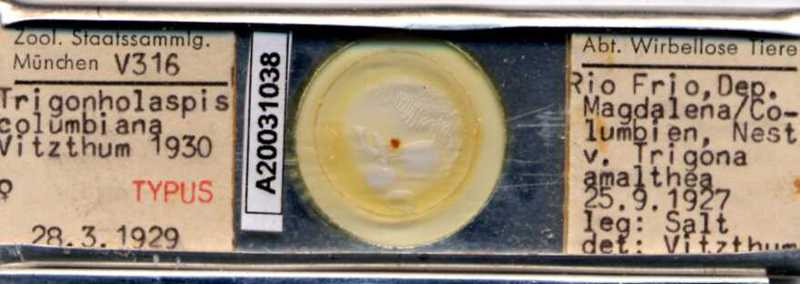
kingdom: Animalia
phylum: Arthropoda
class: Arachnida
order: Mesostigmata
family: Macrochelidae
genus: Trigonholaspis
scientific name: Trigonholaspis
